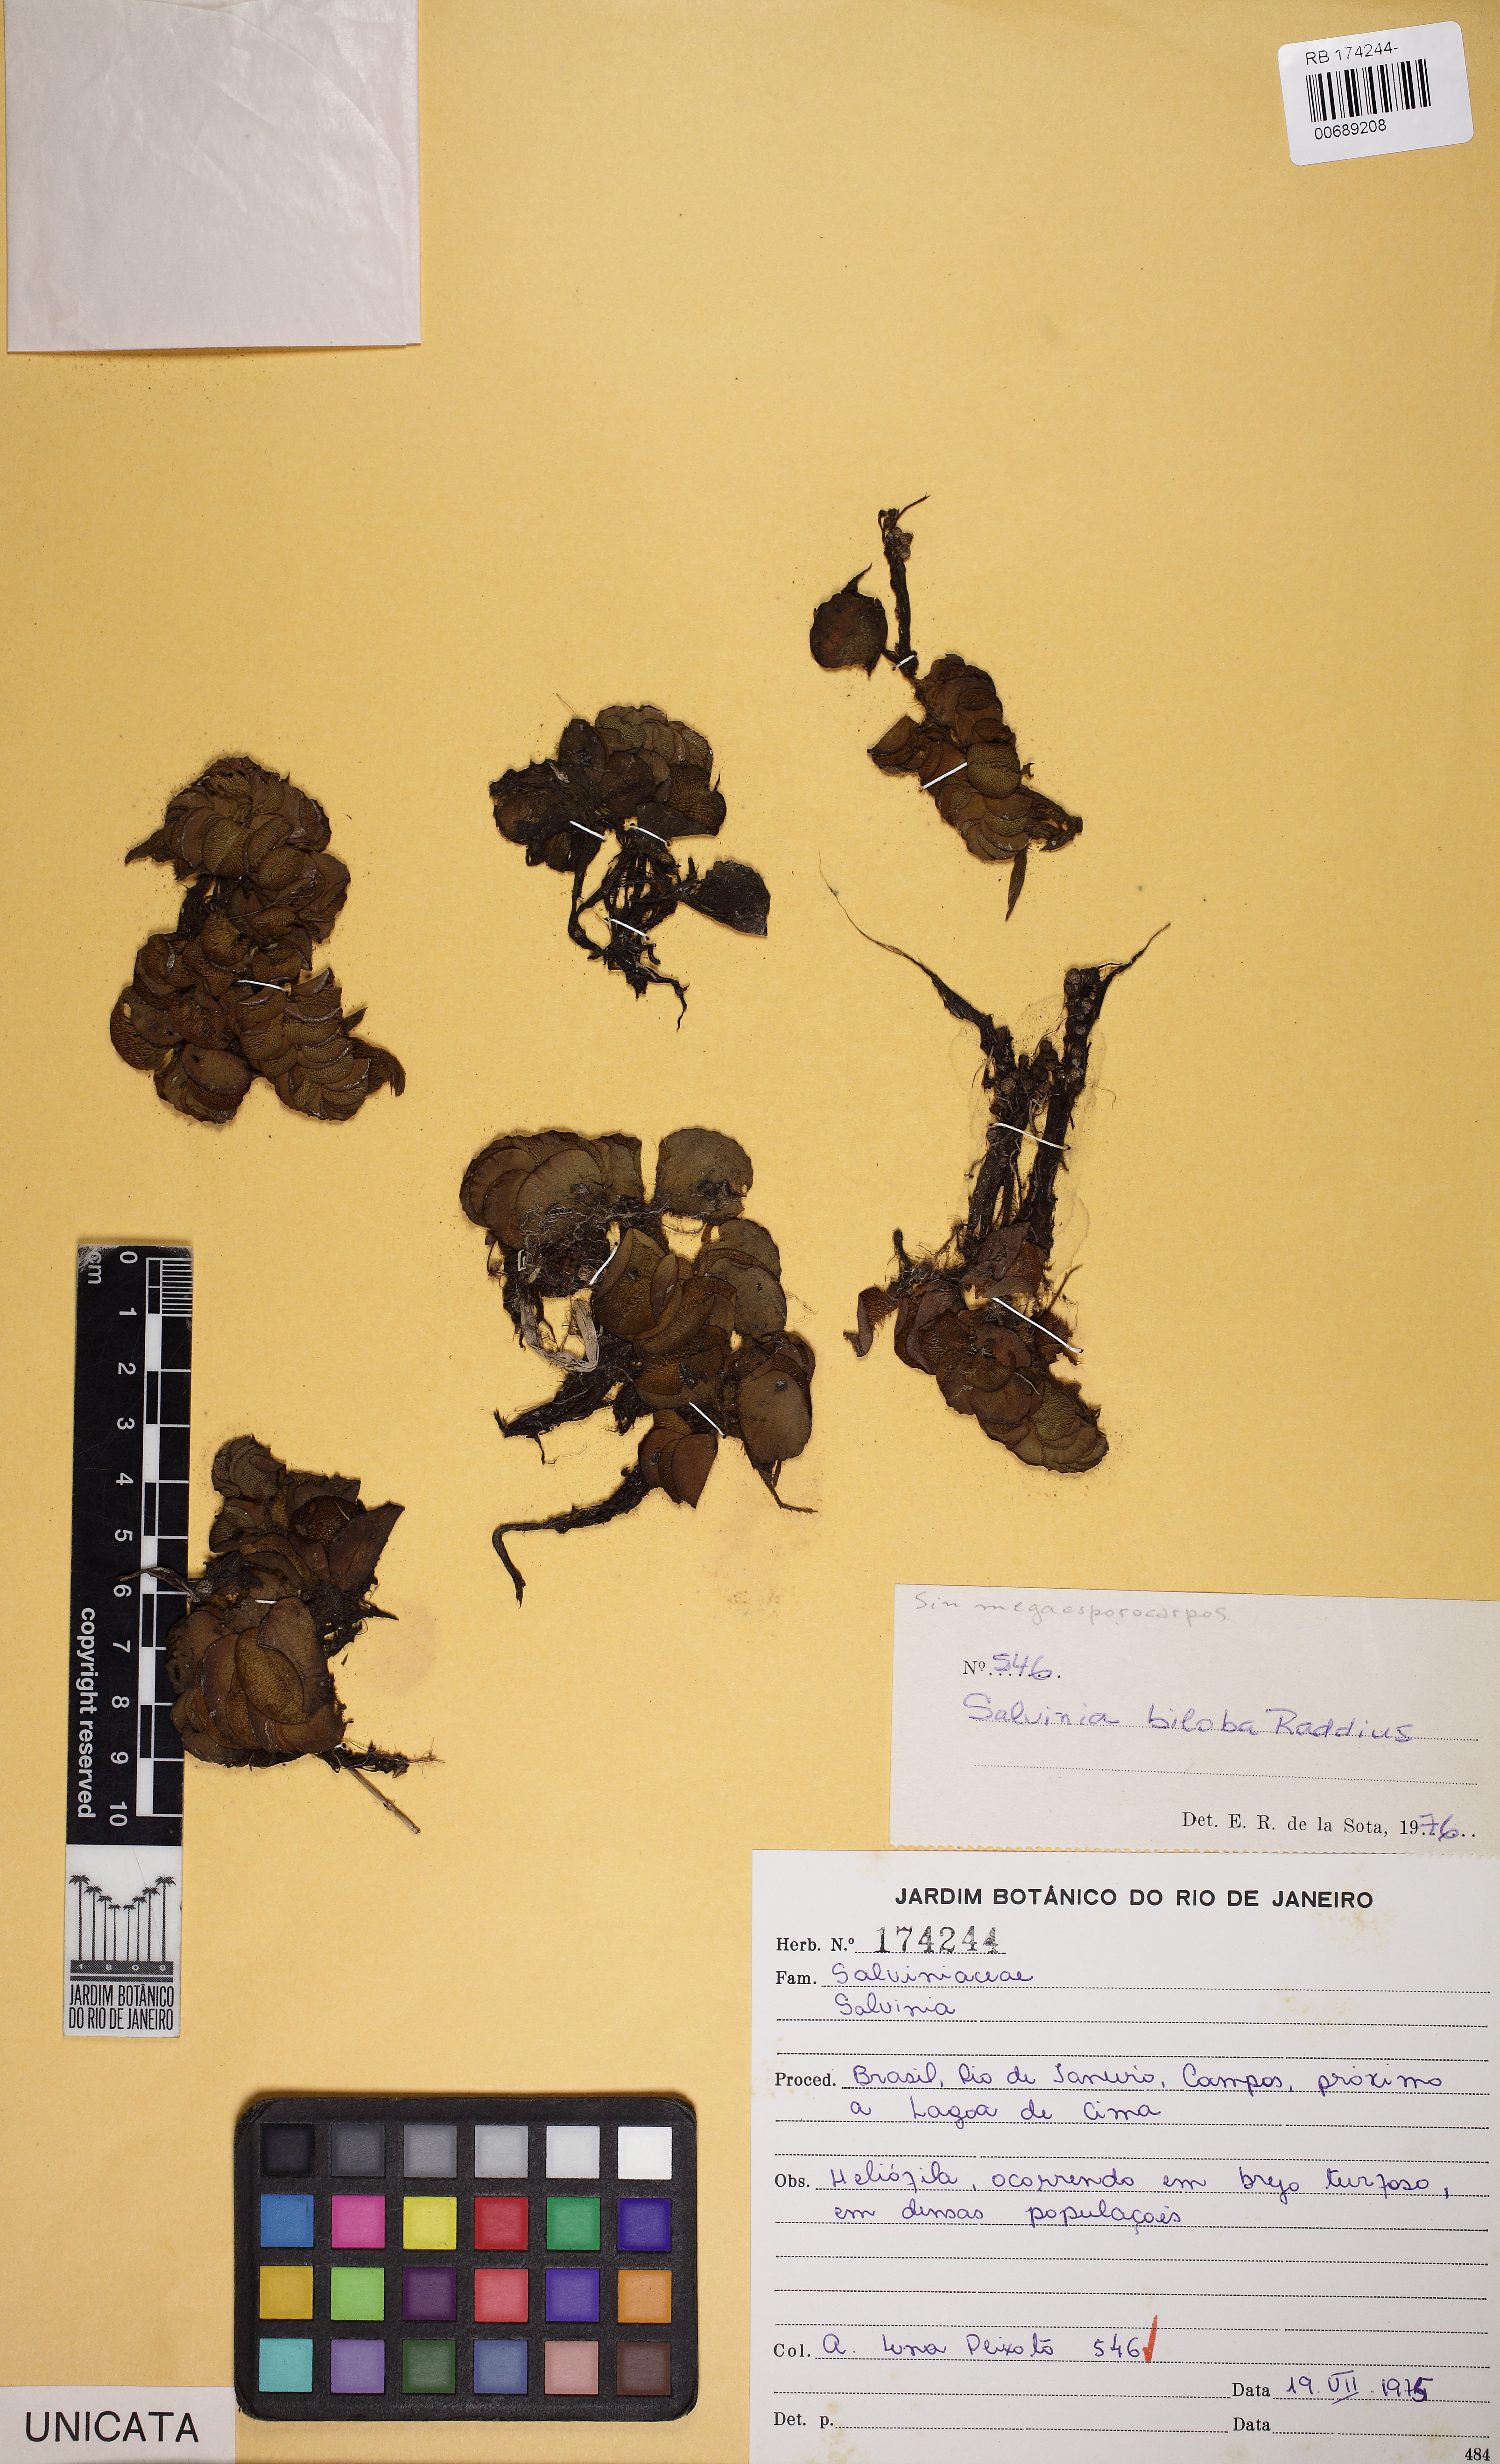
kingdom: Plantae
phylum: Tracheophyta
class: Polypodiopsida
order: Salviniales
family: Salviniaceae
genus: Salvinia
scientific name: Salvinia biloba
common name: Giant salvinia
